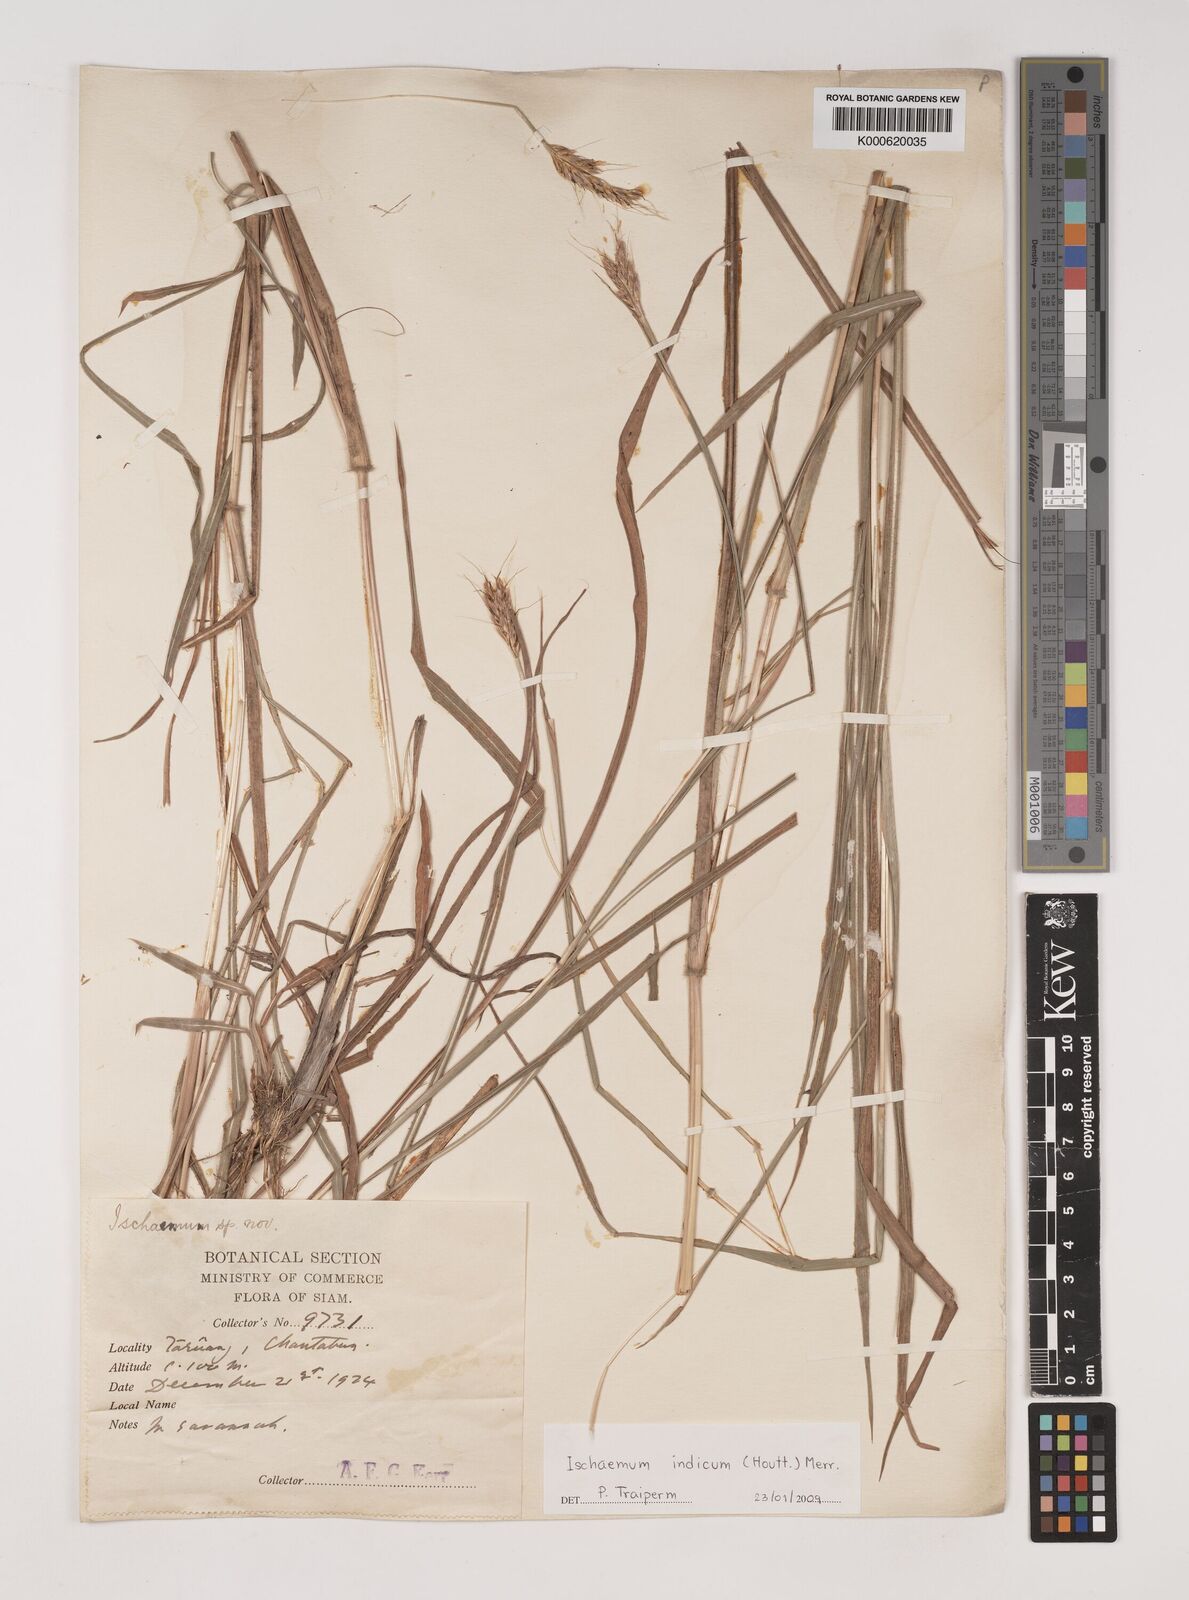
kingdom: Plantae
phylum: Tracheophyta
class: Liliopsida
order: Poales
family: Poaceae
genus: Polytrias
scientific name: Polytrias indica
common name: Indian murainagrass
